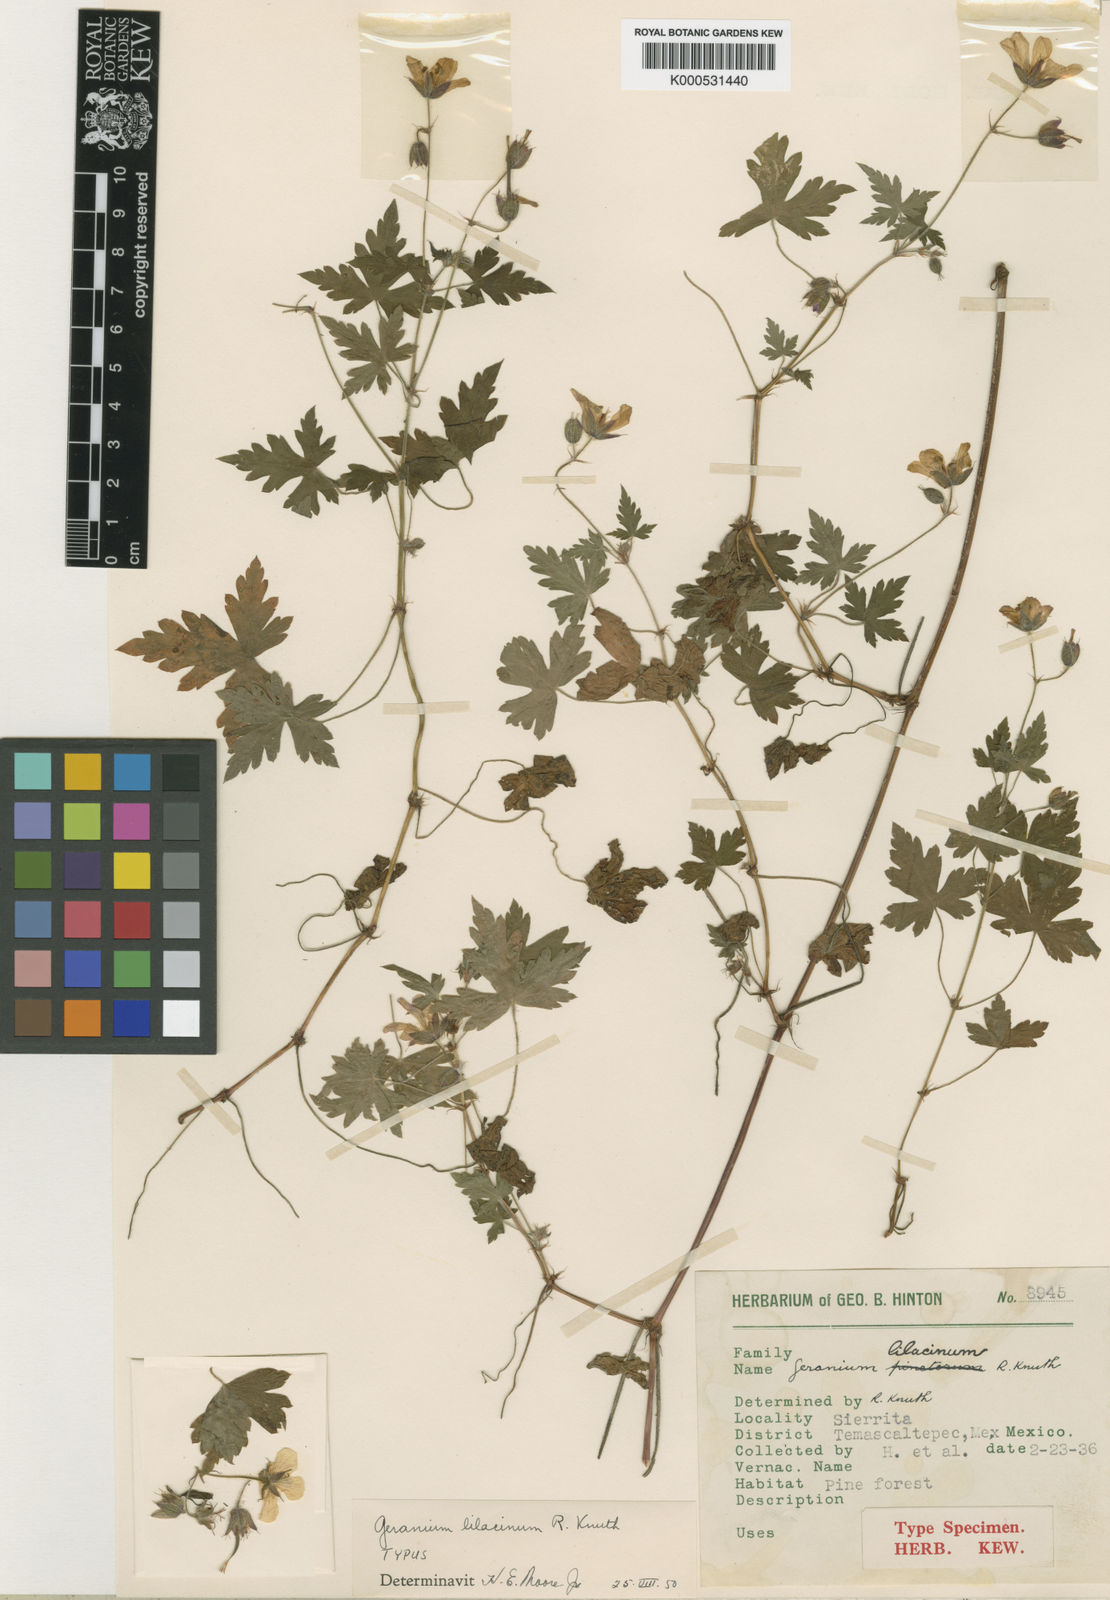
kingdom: Plantae
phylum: Tracheophyta
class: Magnoliopsida
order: Geraniales
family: Geraniaceae
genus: Geranium
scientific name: Geranium lilacinum
